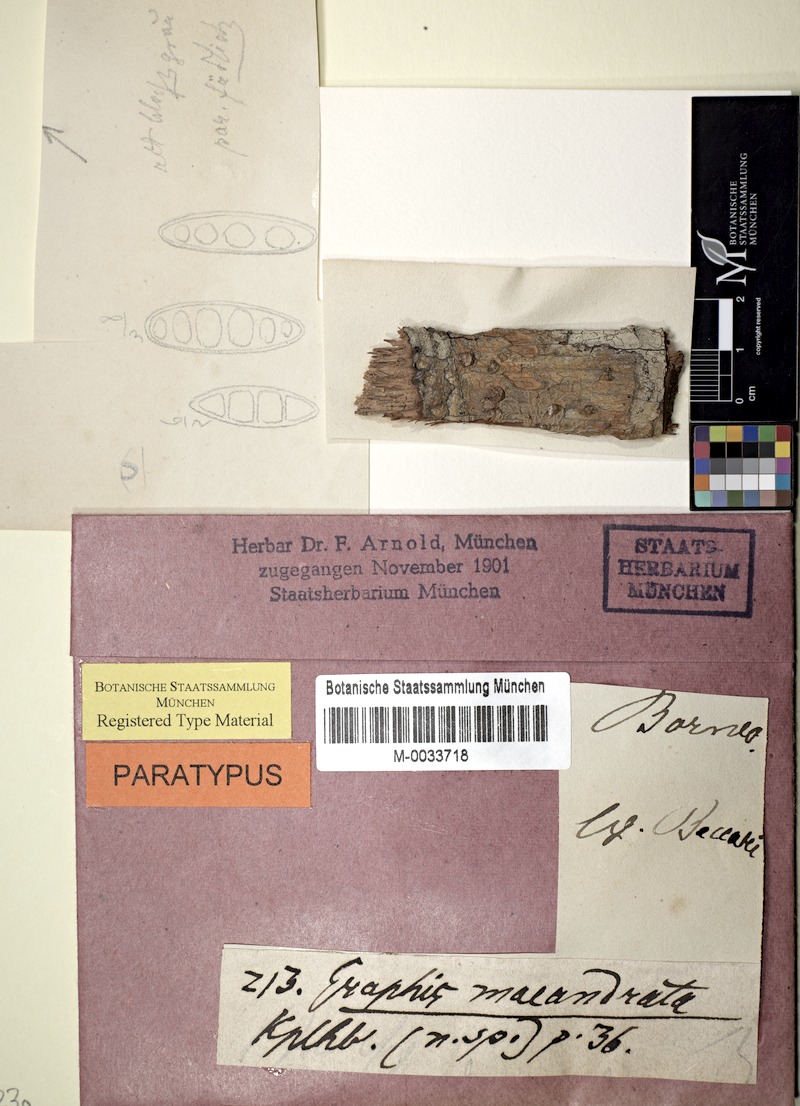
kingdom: Fungi
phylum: Ascomycota
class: Lecanoromycetes
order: Ostropales
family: Graphidaceae
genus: Phaeographis
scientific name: Phaeographis
